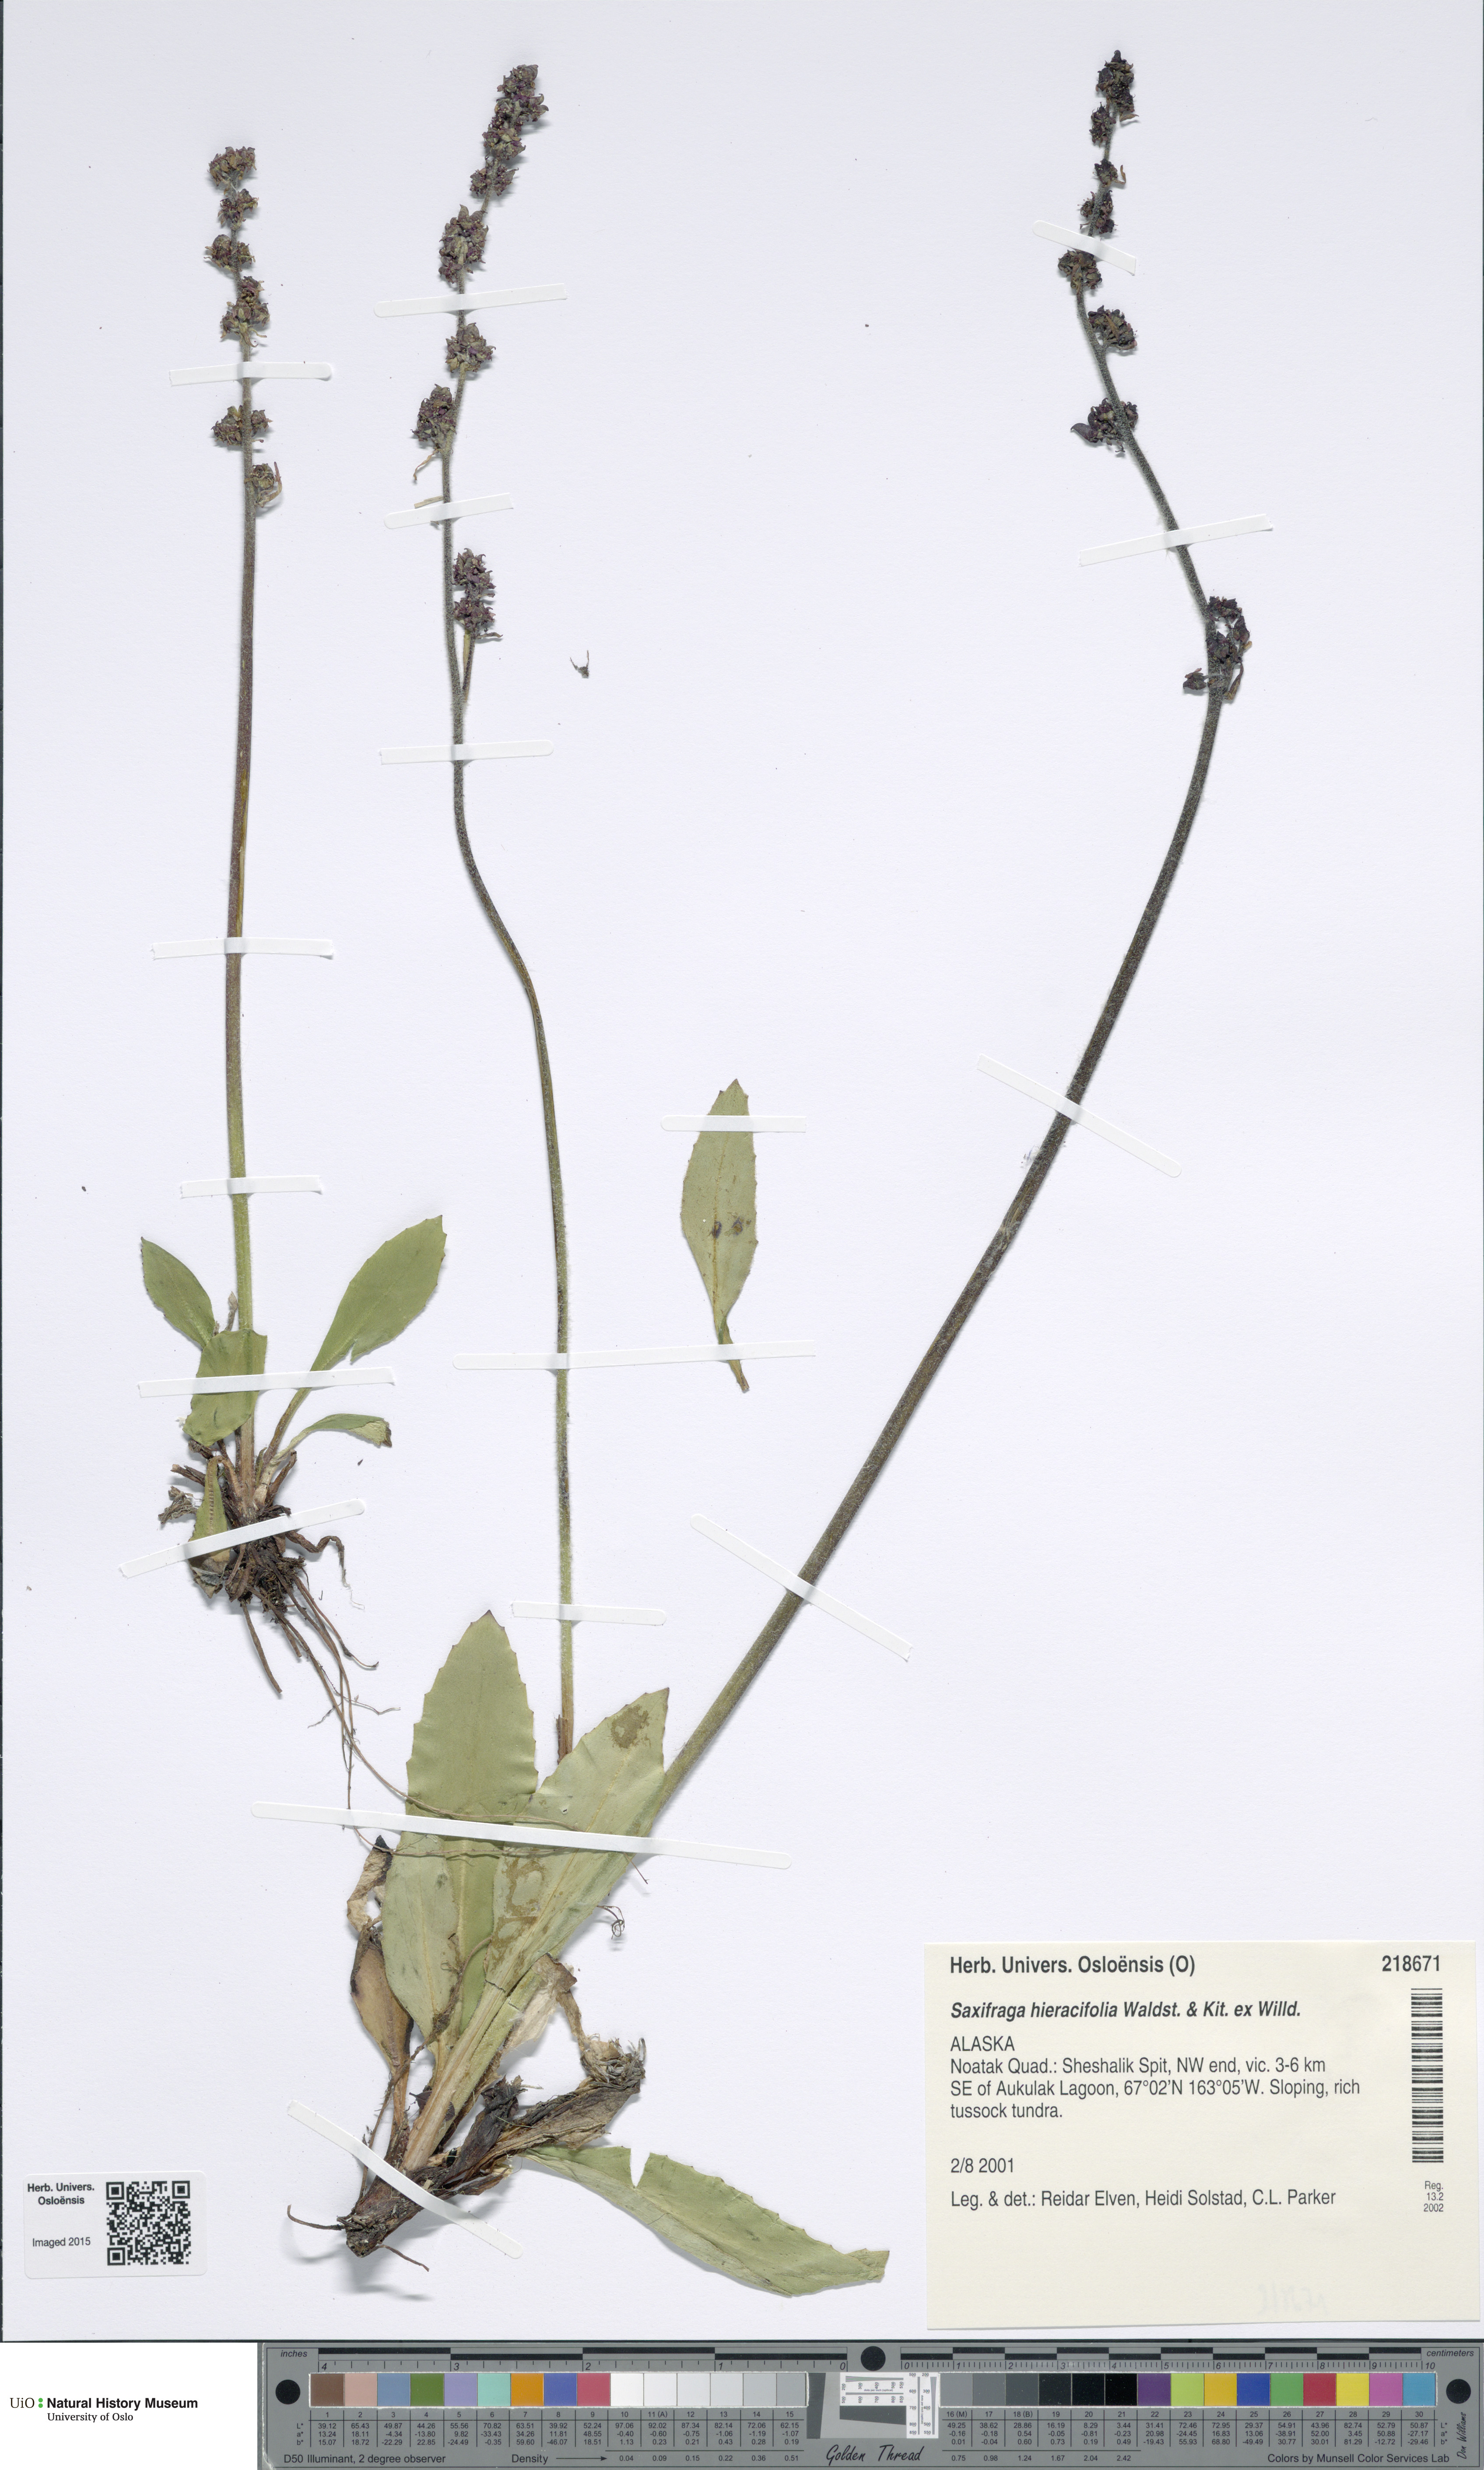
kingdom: Plantae
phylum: Tracheophyta
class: Magnoliopsida
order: Saxifragales
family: Saxifragaceae
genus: Micranthes
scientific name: Micranthes hieraciifolia
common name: Hawkweed-leaved saxifrage
